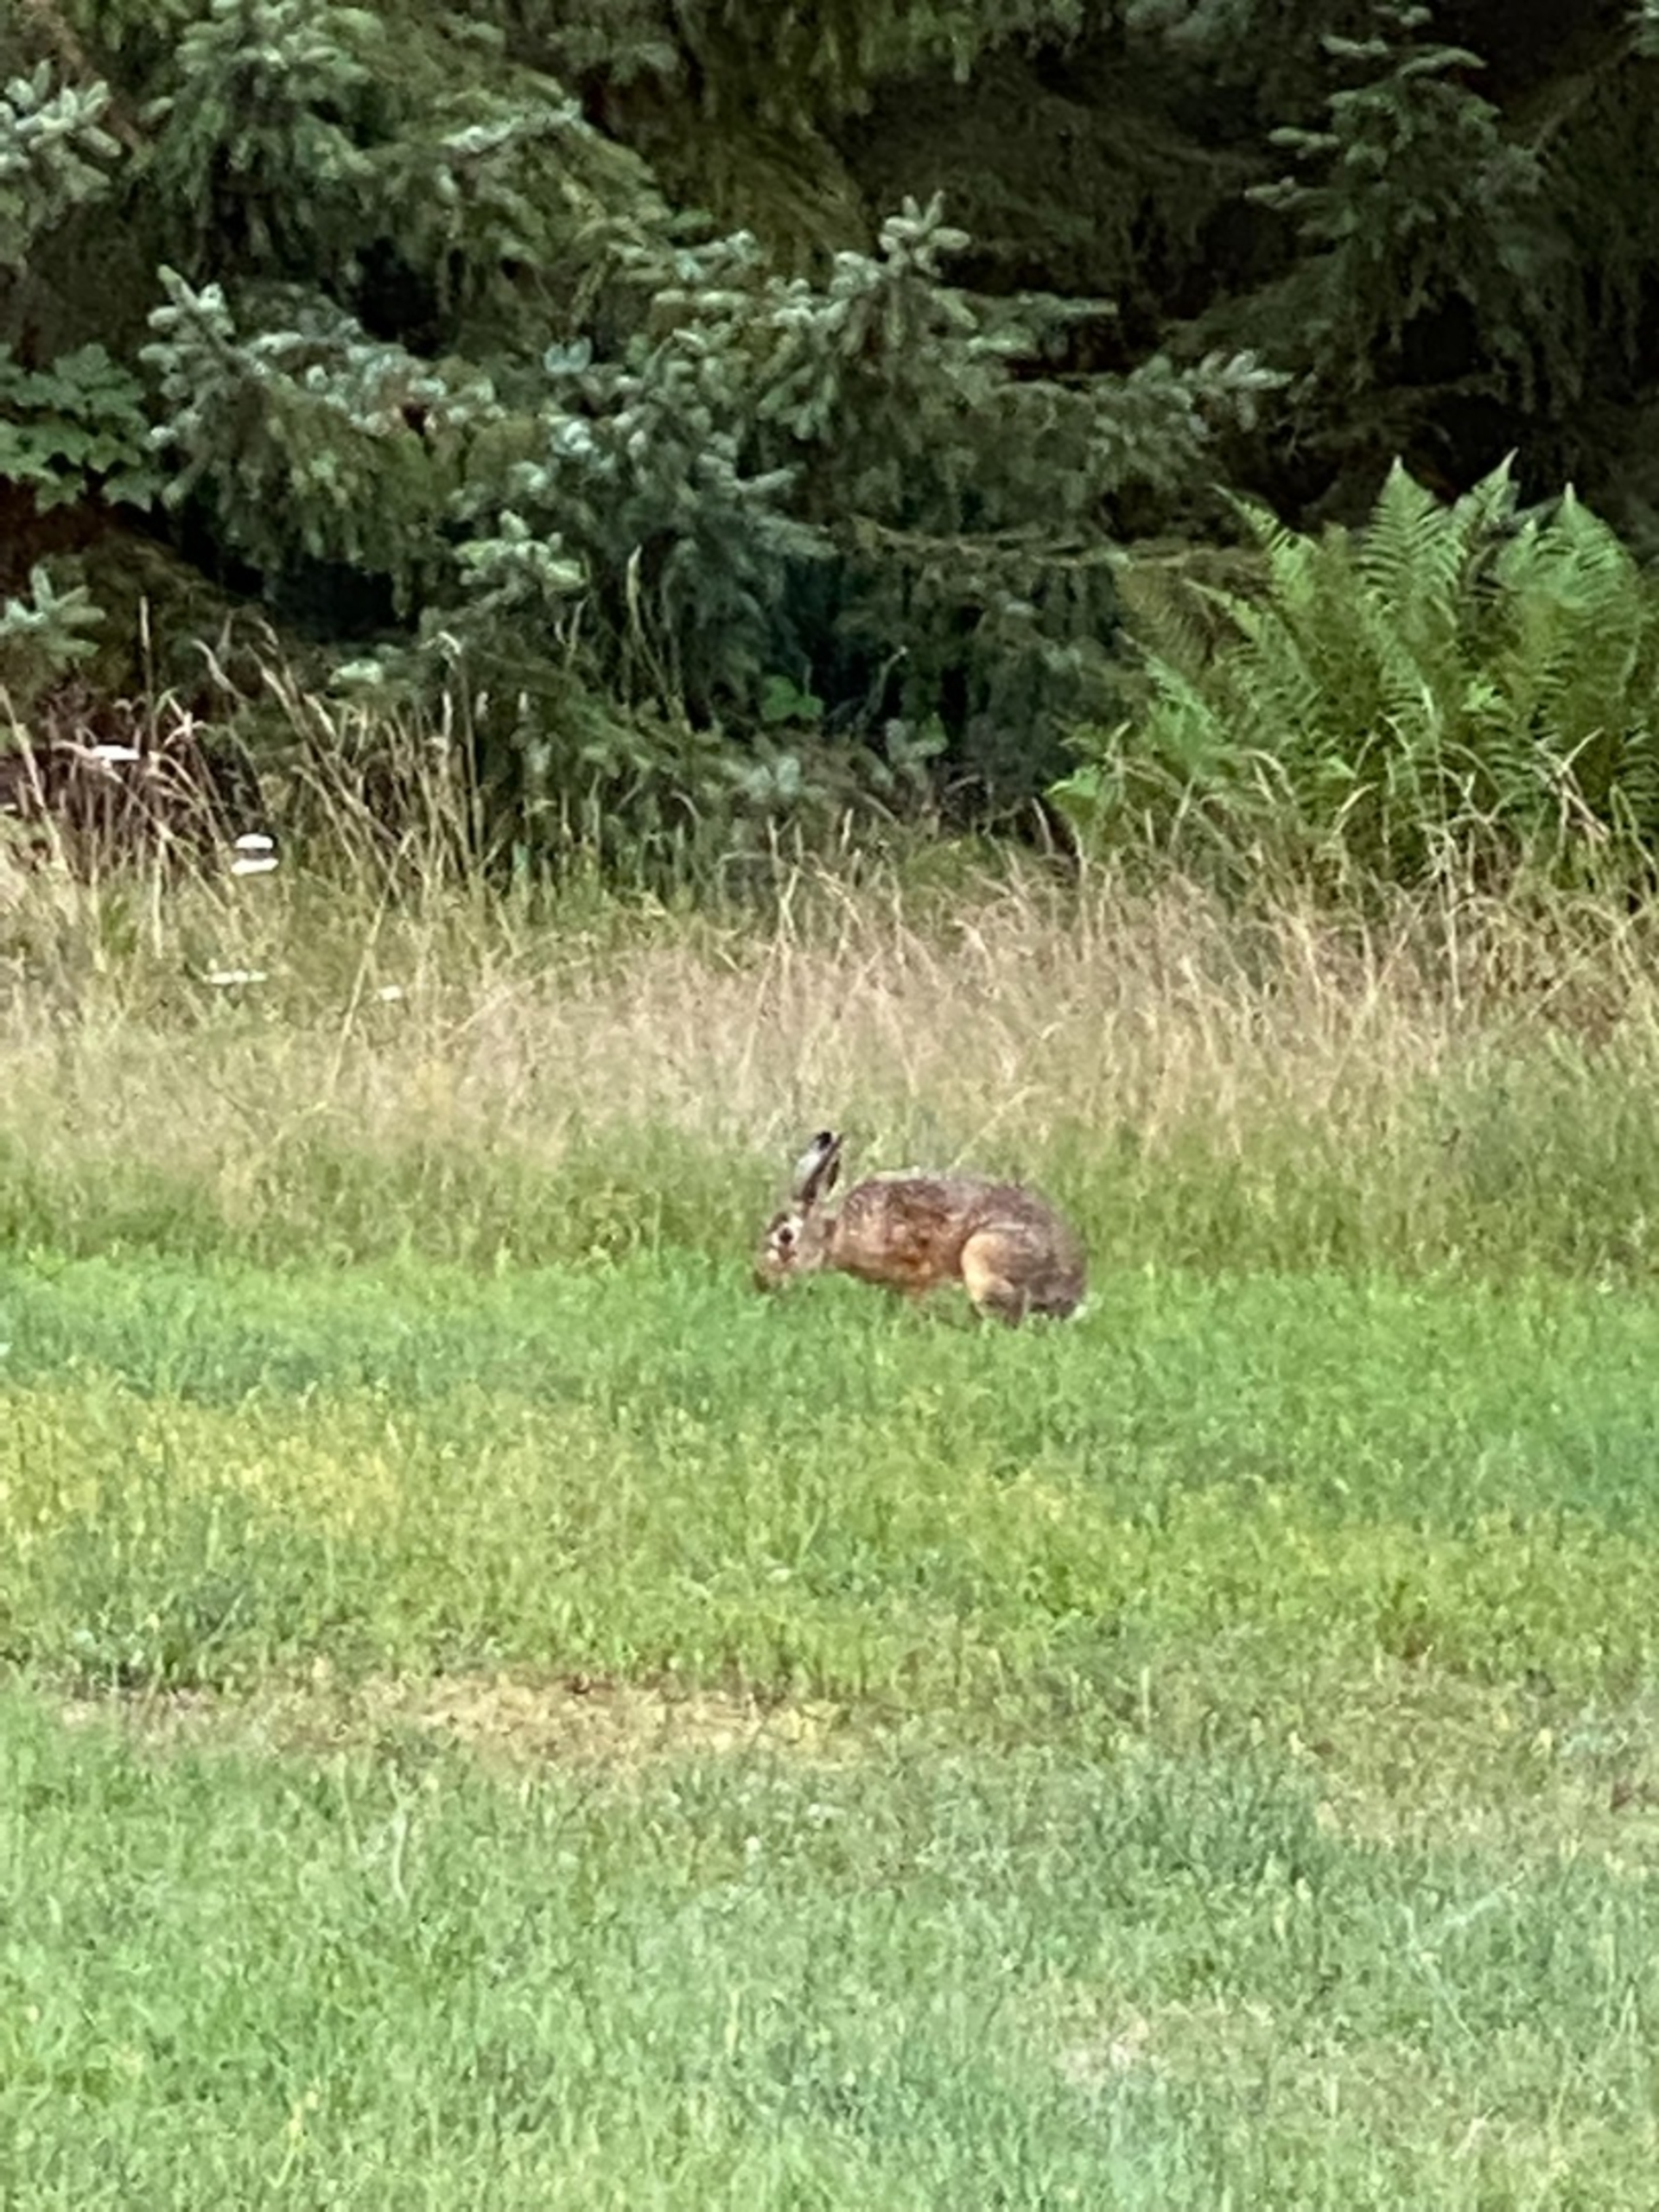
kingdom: Animalia
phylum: Chordata
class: Mammalia
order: Lagomorpha
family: Leporidae
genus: Lepus
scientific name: Lepus europaeus
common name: Hare
